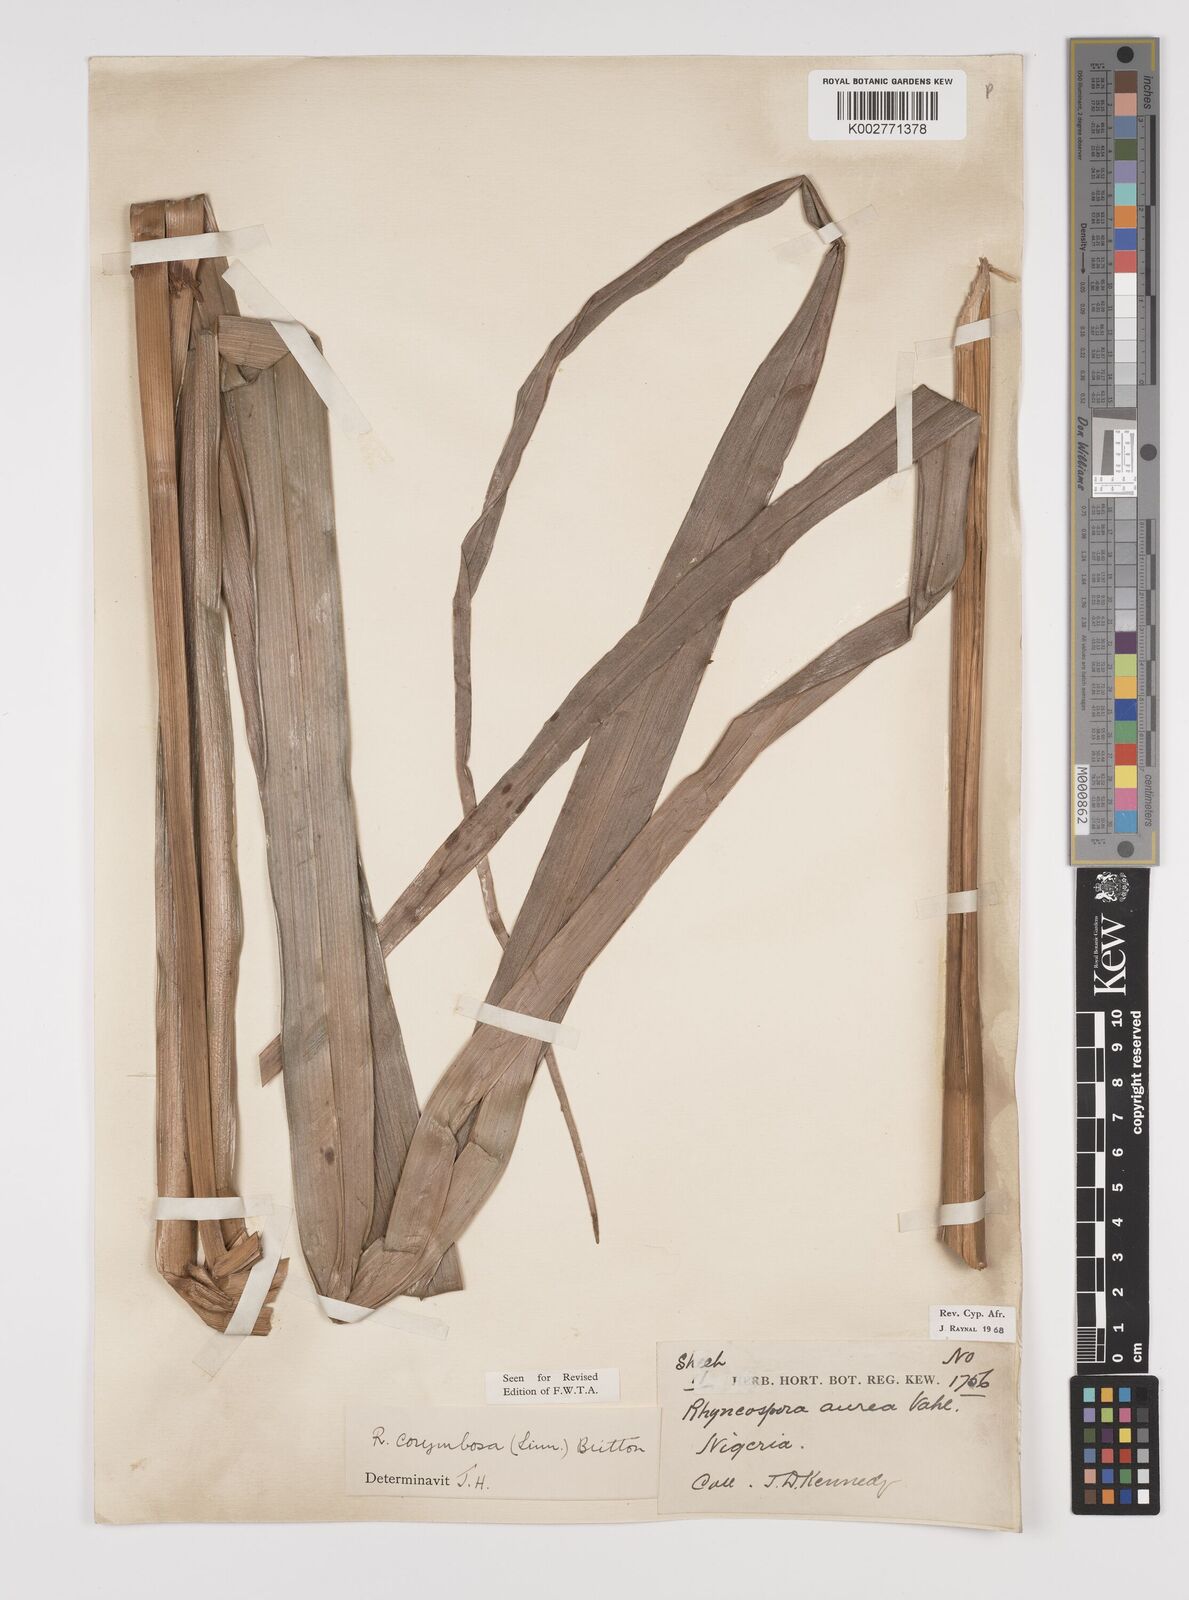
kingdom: Plantae
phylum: Tracheophyta
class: Liliopsida
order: Poales
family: Cyperaceae
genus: Rhynchospora
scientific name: Rhynchospora corymbosa
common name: Golden beak sedge
